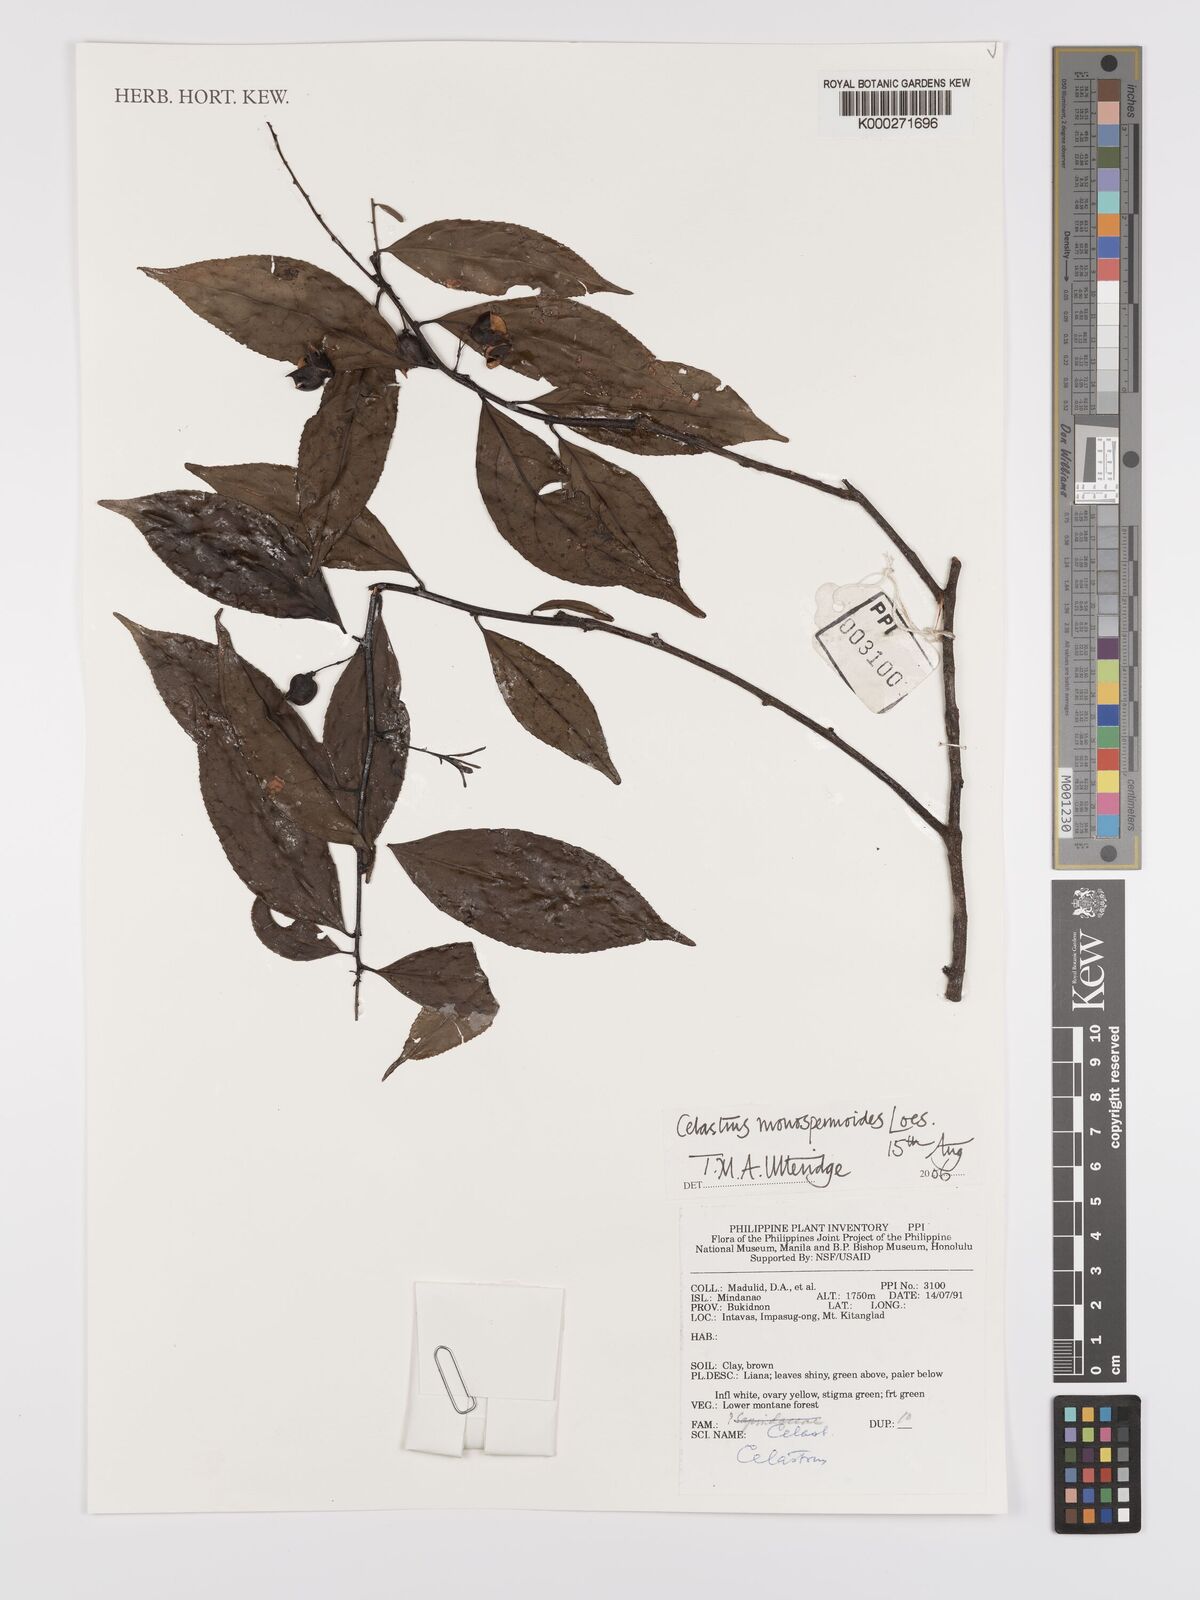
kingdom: Plantae
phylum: Tracheophyta
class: Magnoliopsida
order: Celastrales
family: Celastraceae
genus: Celastrus
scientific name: Celastrus monospermoides
